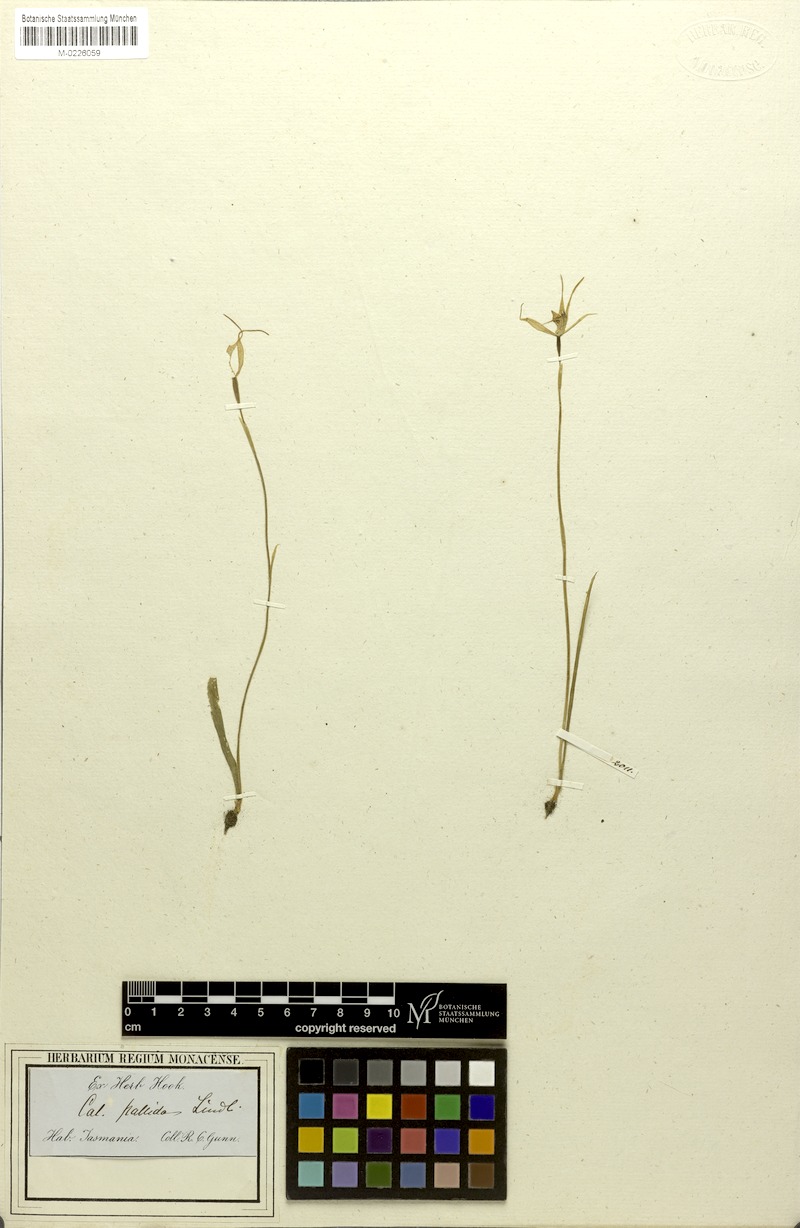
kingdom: Plantae
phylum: Tracheophyta
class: Liliopsida
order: Asparagales
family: Orchidaceae
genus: Caladenia
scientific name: Caladenia pallida
